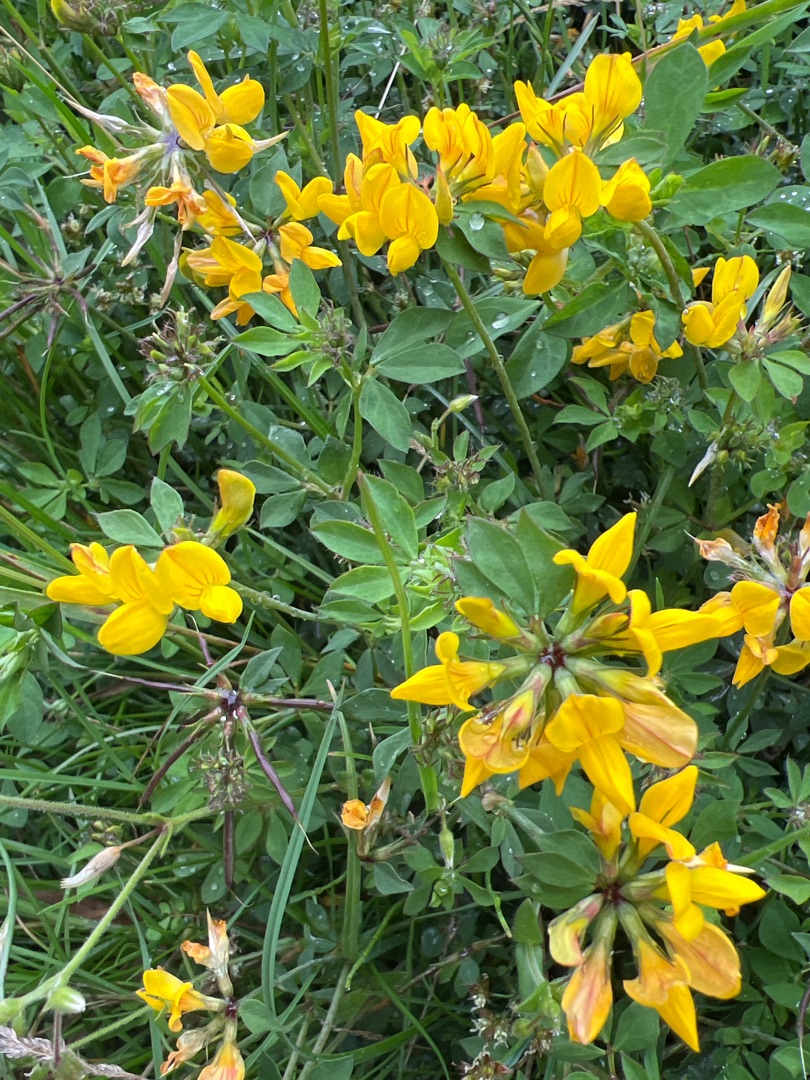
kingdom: Plantae
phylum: Tracheophyta
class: Magnoliopsida
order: Fabales
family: Fabaceae
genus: Lotus
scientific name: Lotus pedunculatus
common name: Sump-kællingetand
